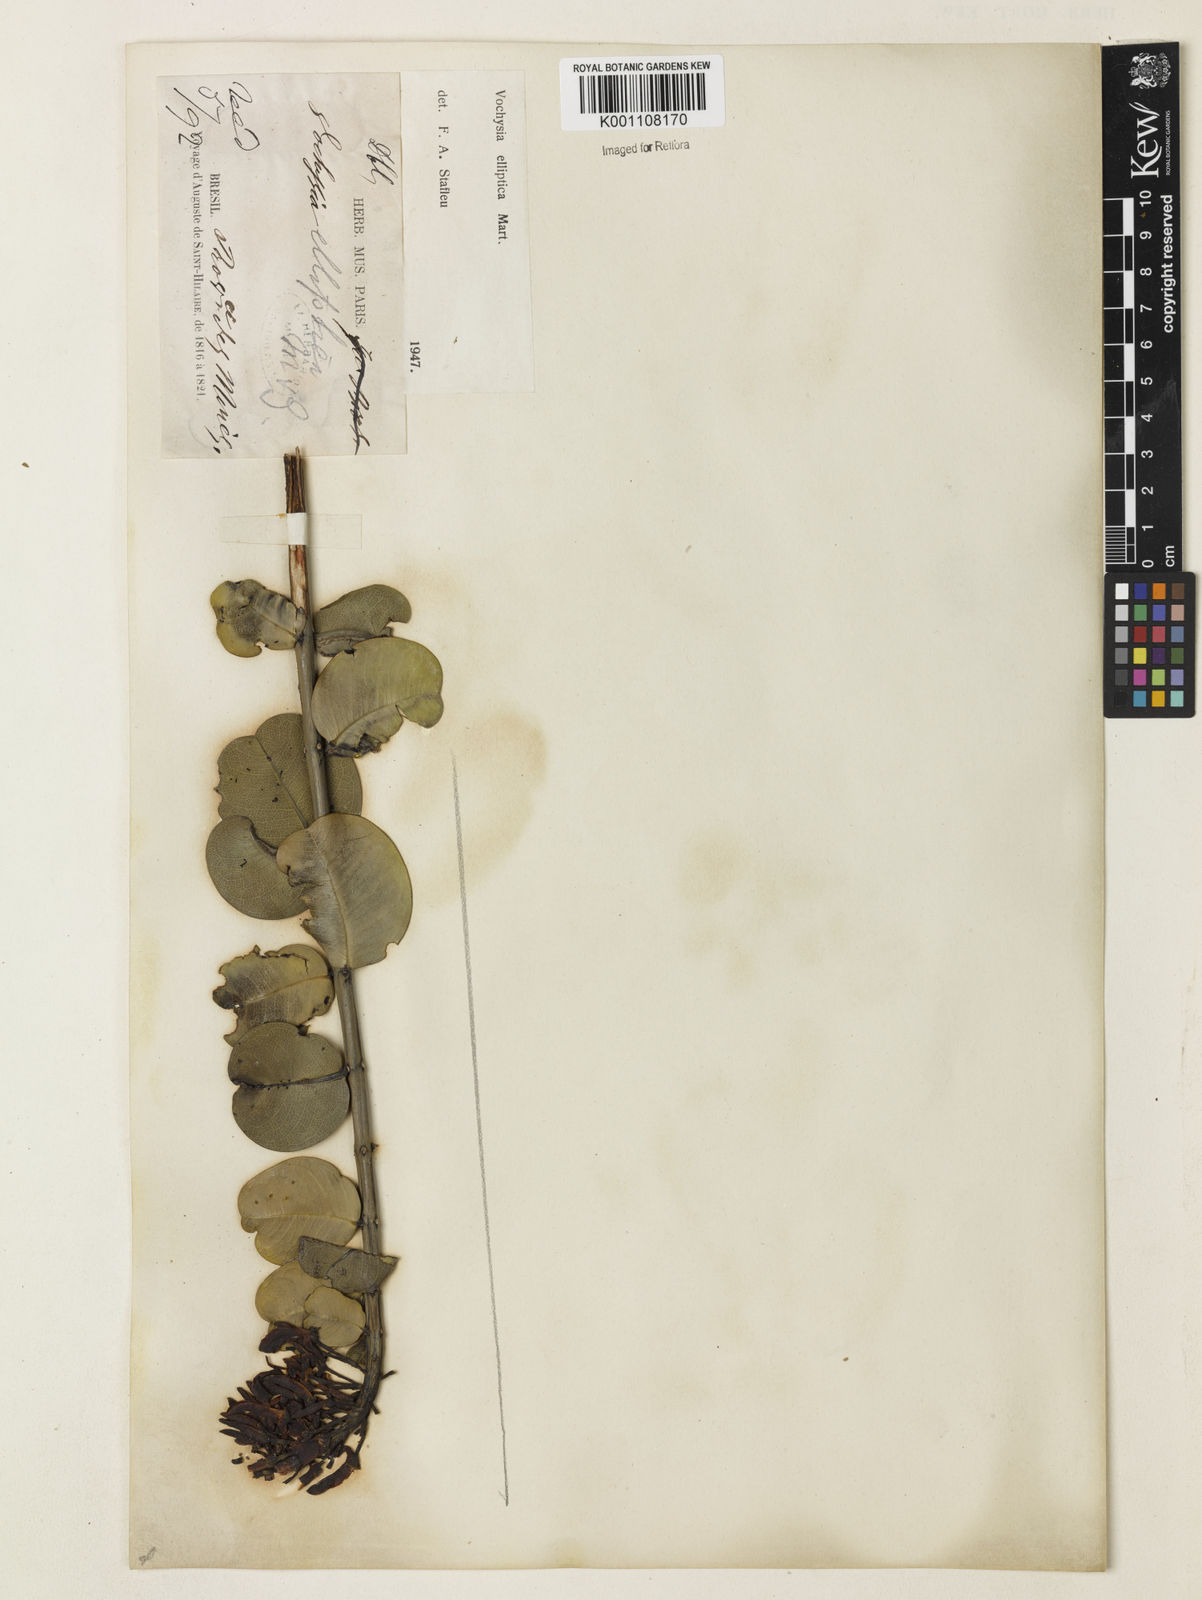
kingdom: Plantae
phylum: Tracheophyta
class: Magnoliopsida
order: Myrtales
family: Vochysiaceae
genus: Vochysia
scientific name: Vochysia elliptica
